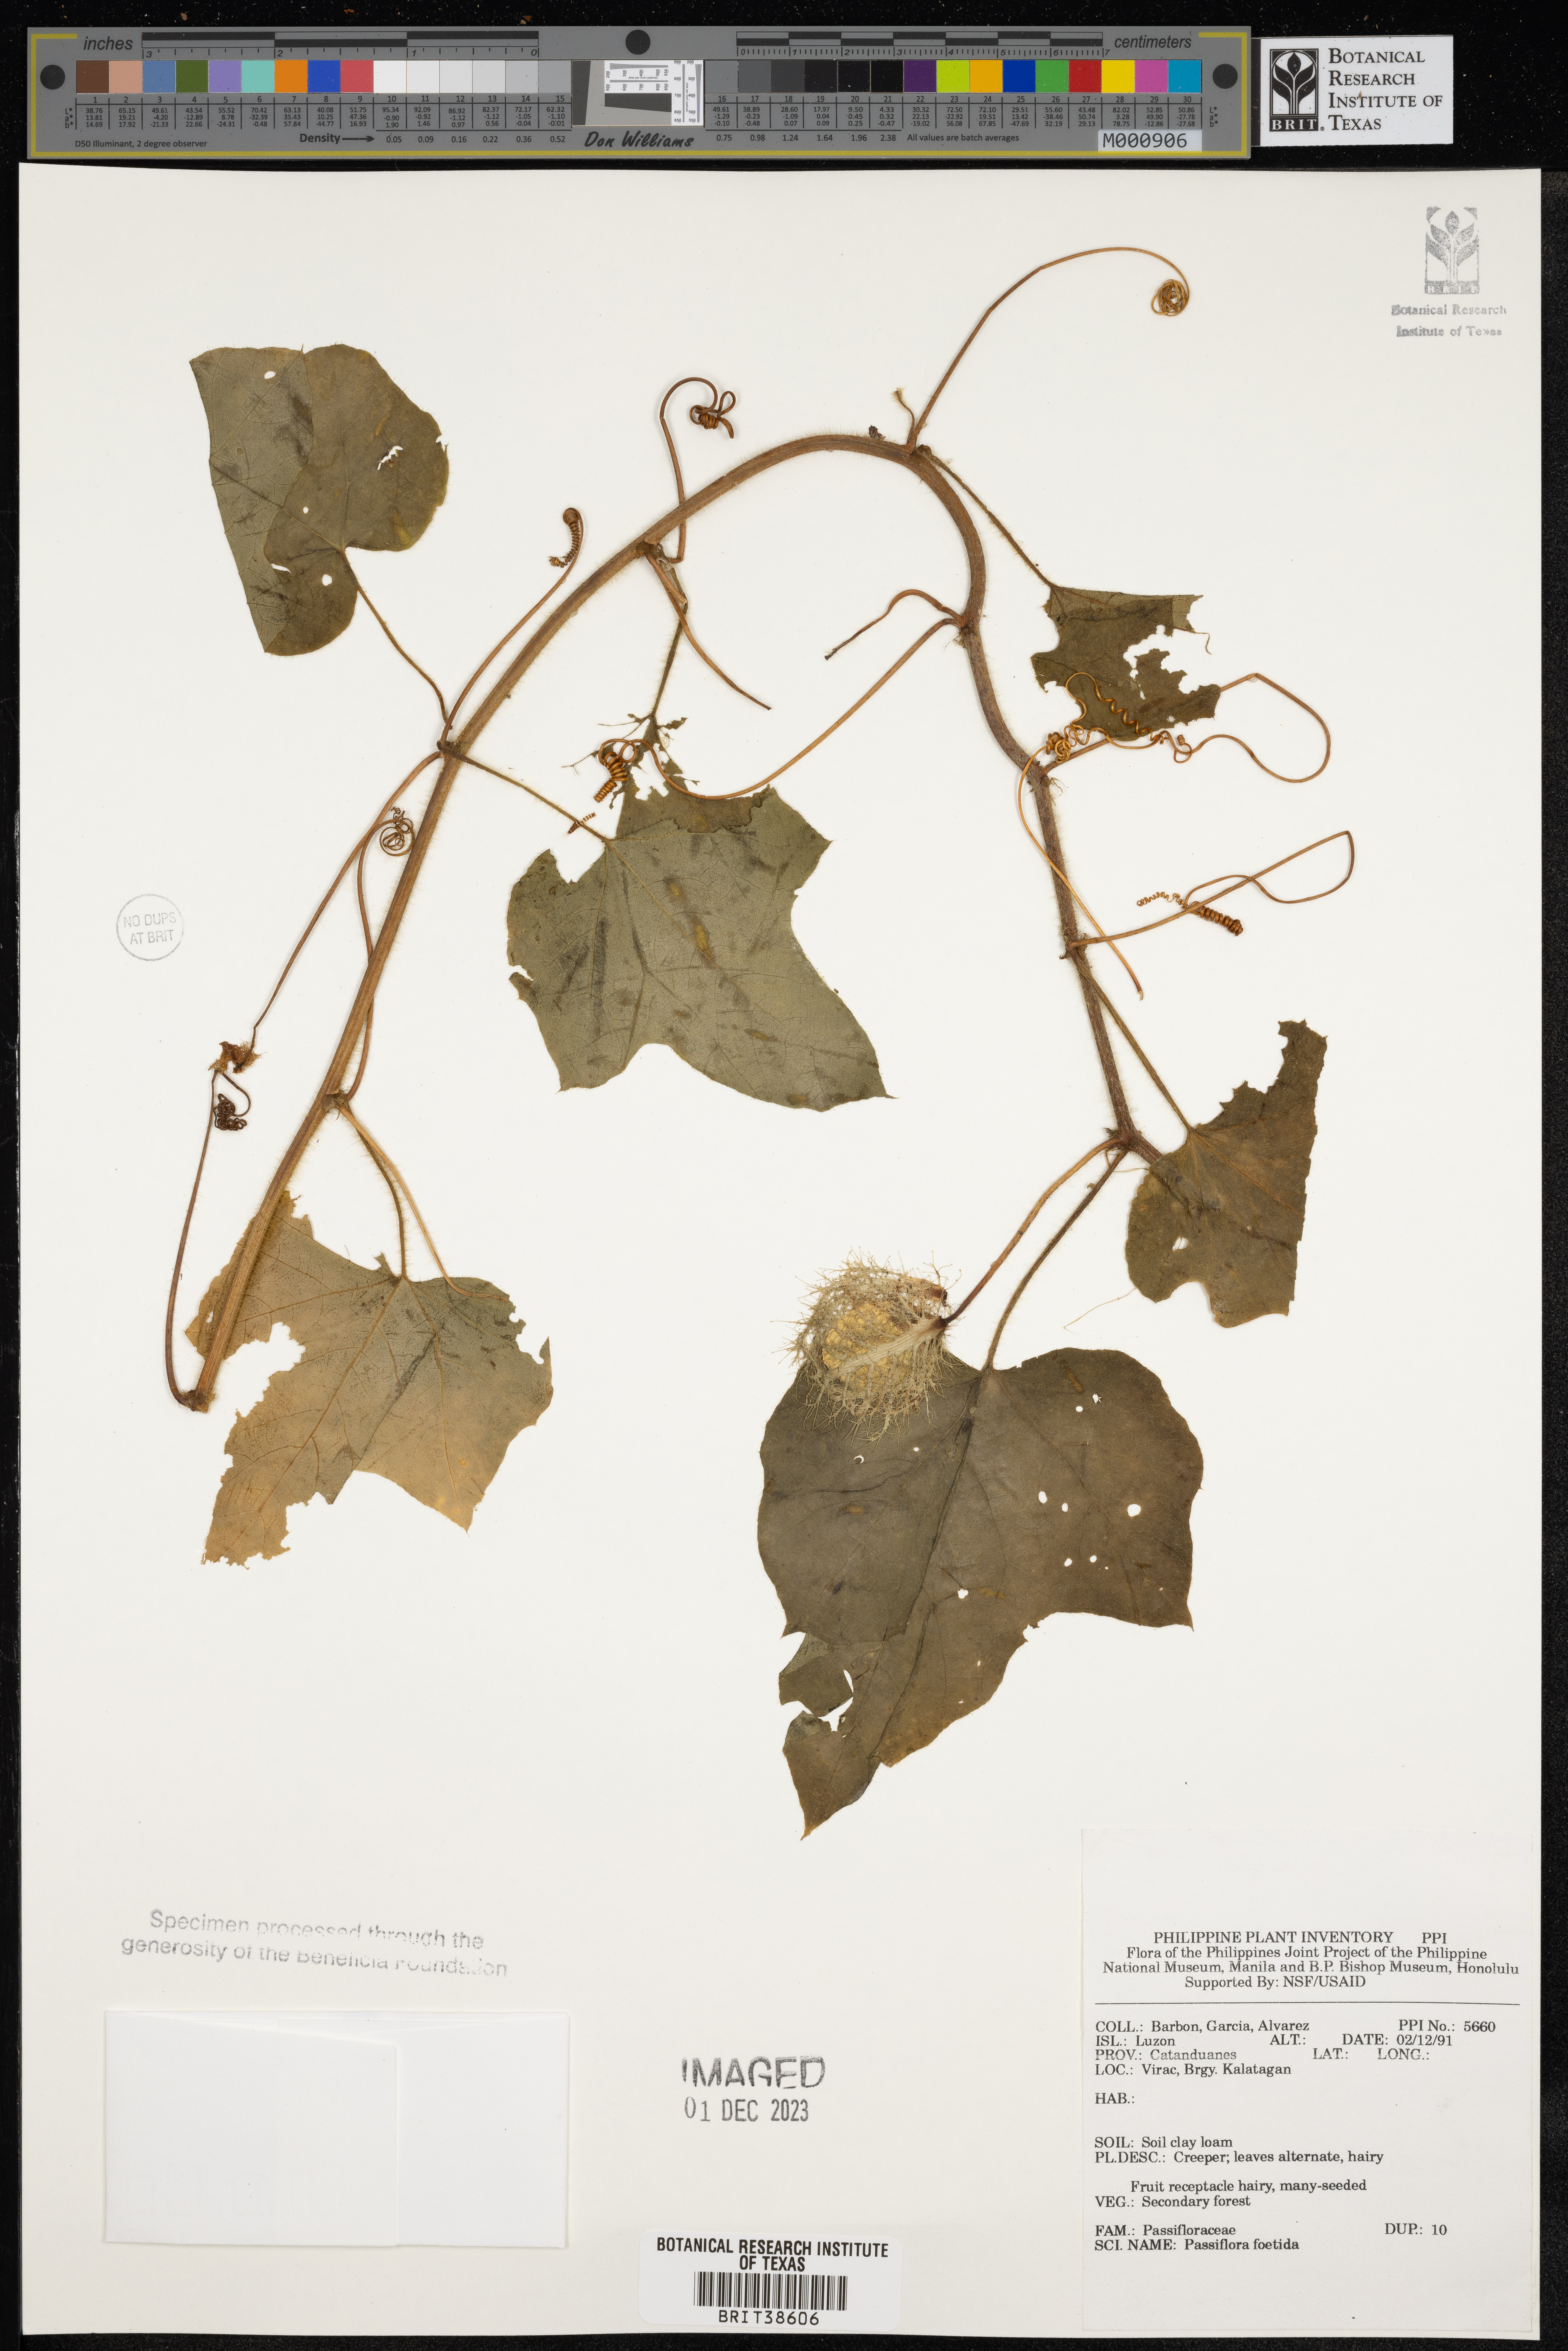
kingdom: Plantae
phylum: Tracheophyta
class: Magnoliopsida
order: Malpighiales
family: Passifloraceae
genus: Passiflora
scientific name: Passiflora foetida
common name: Fetid passionflower
